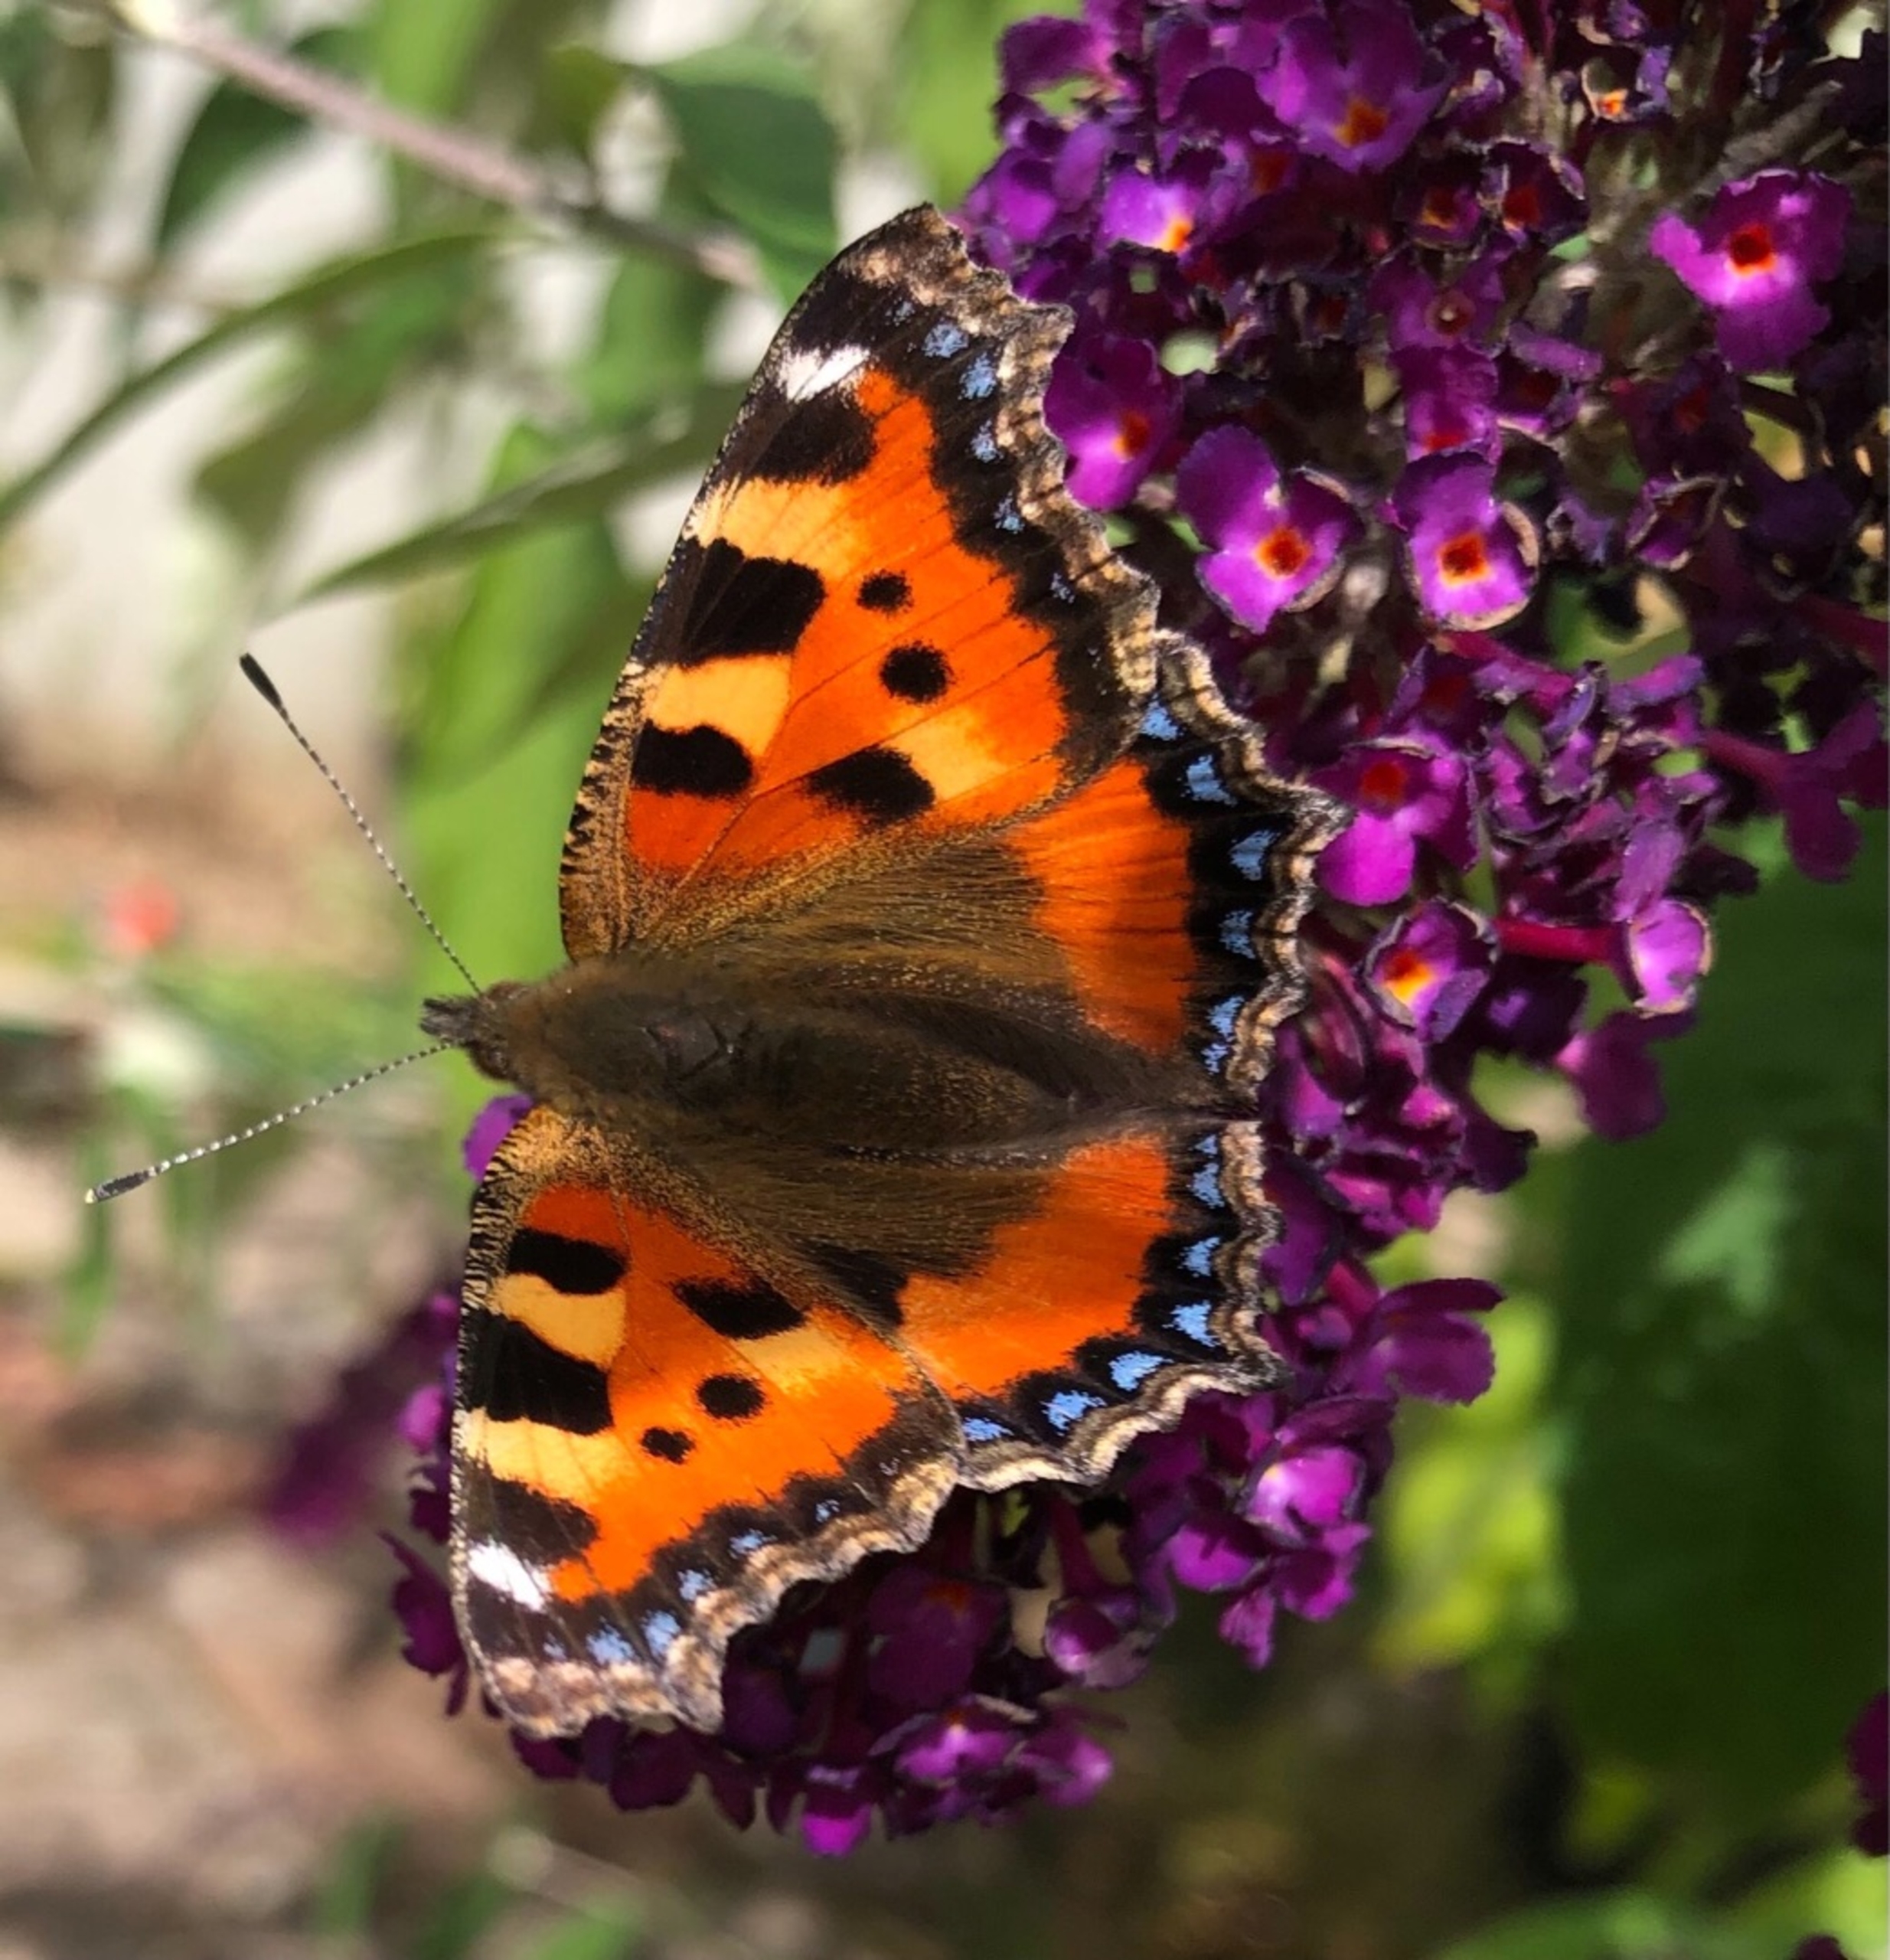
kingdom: Animalia
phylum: Arthropoda
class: Insecta
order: Lepidoptera
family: Nymphalidae
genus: Aglais
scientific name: Aglais urticae
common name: Nældens takvinge
